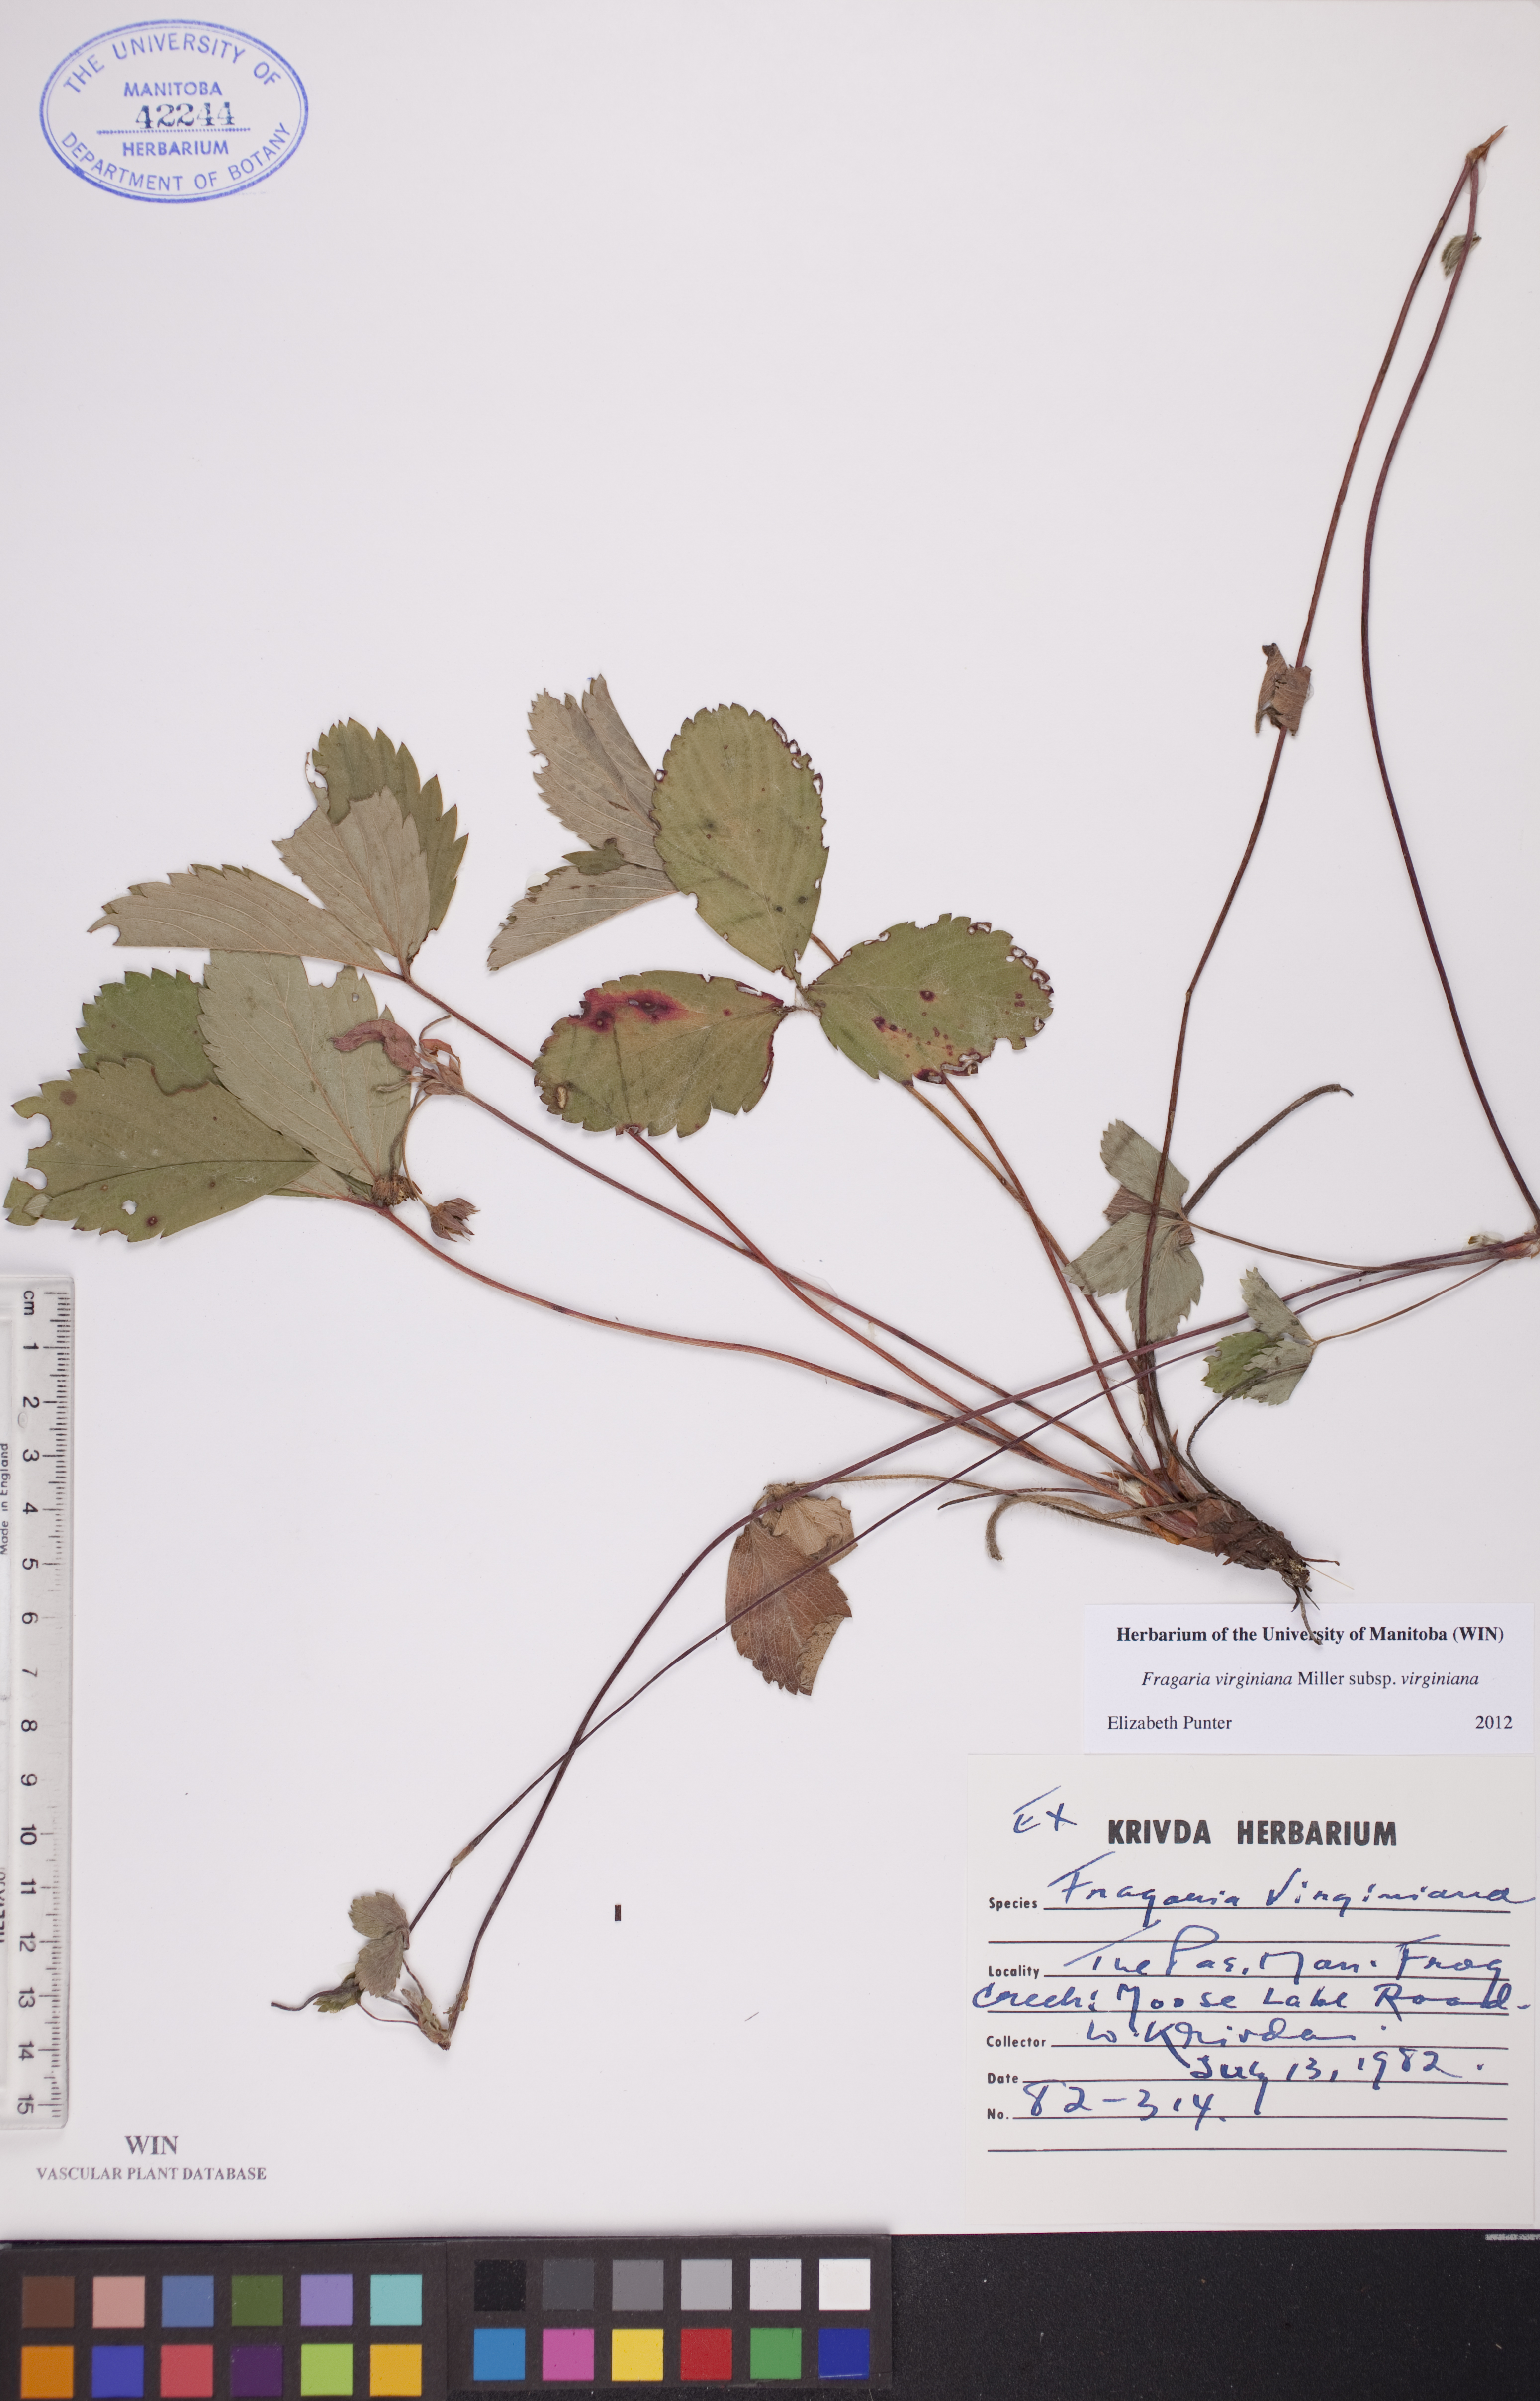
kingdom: Plantae
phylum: Tracheophyta
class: Magnoliopsida
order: Rosales
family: Rosaceae
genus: Fragaria
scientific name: Fragaria virginiana
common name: Thickleaved wild strawberry
